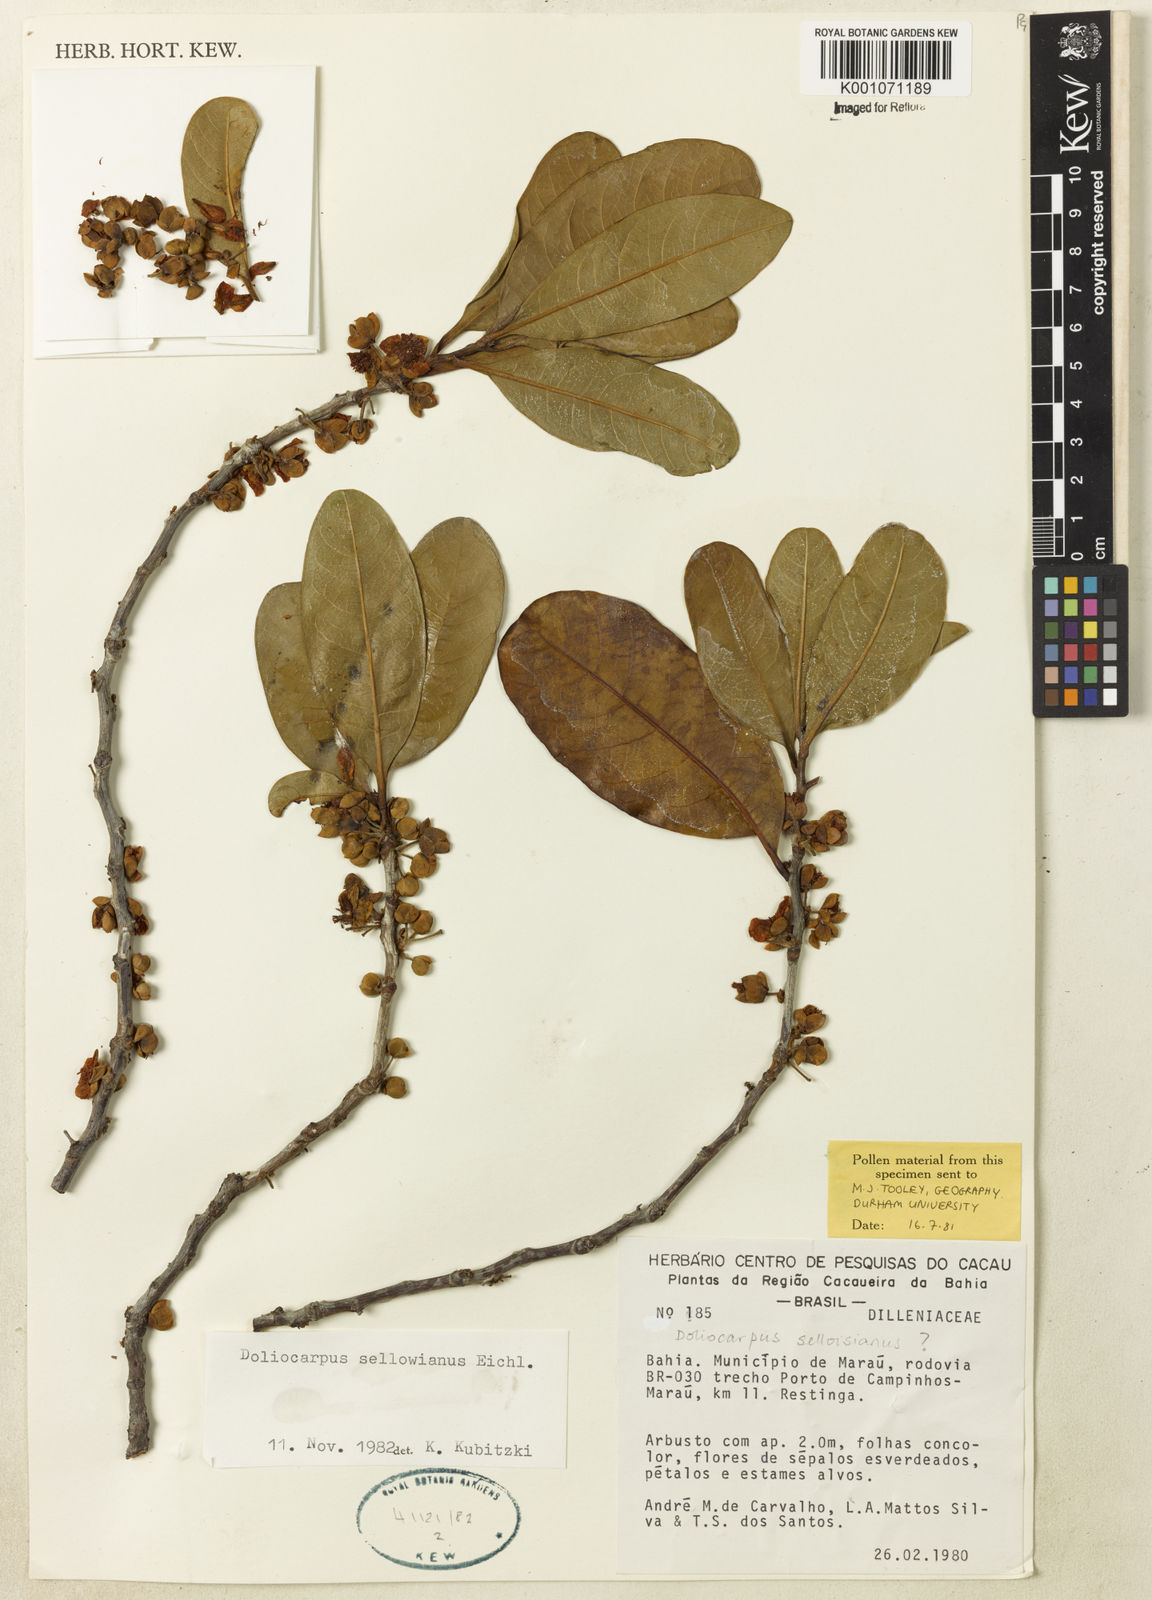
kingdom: Plantae
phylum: Tracheophyta
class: Magnoliopsida
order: Dilleniales
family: Dilleniaceae
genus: Doliocarpus
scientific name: Doliocarpus sellowianus
